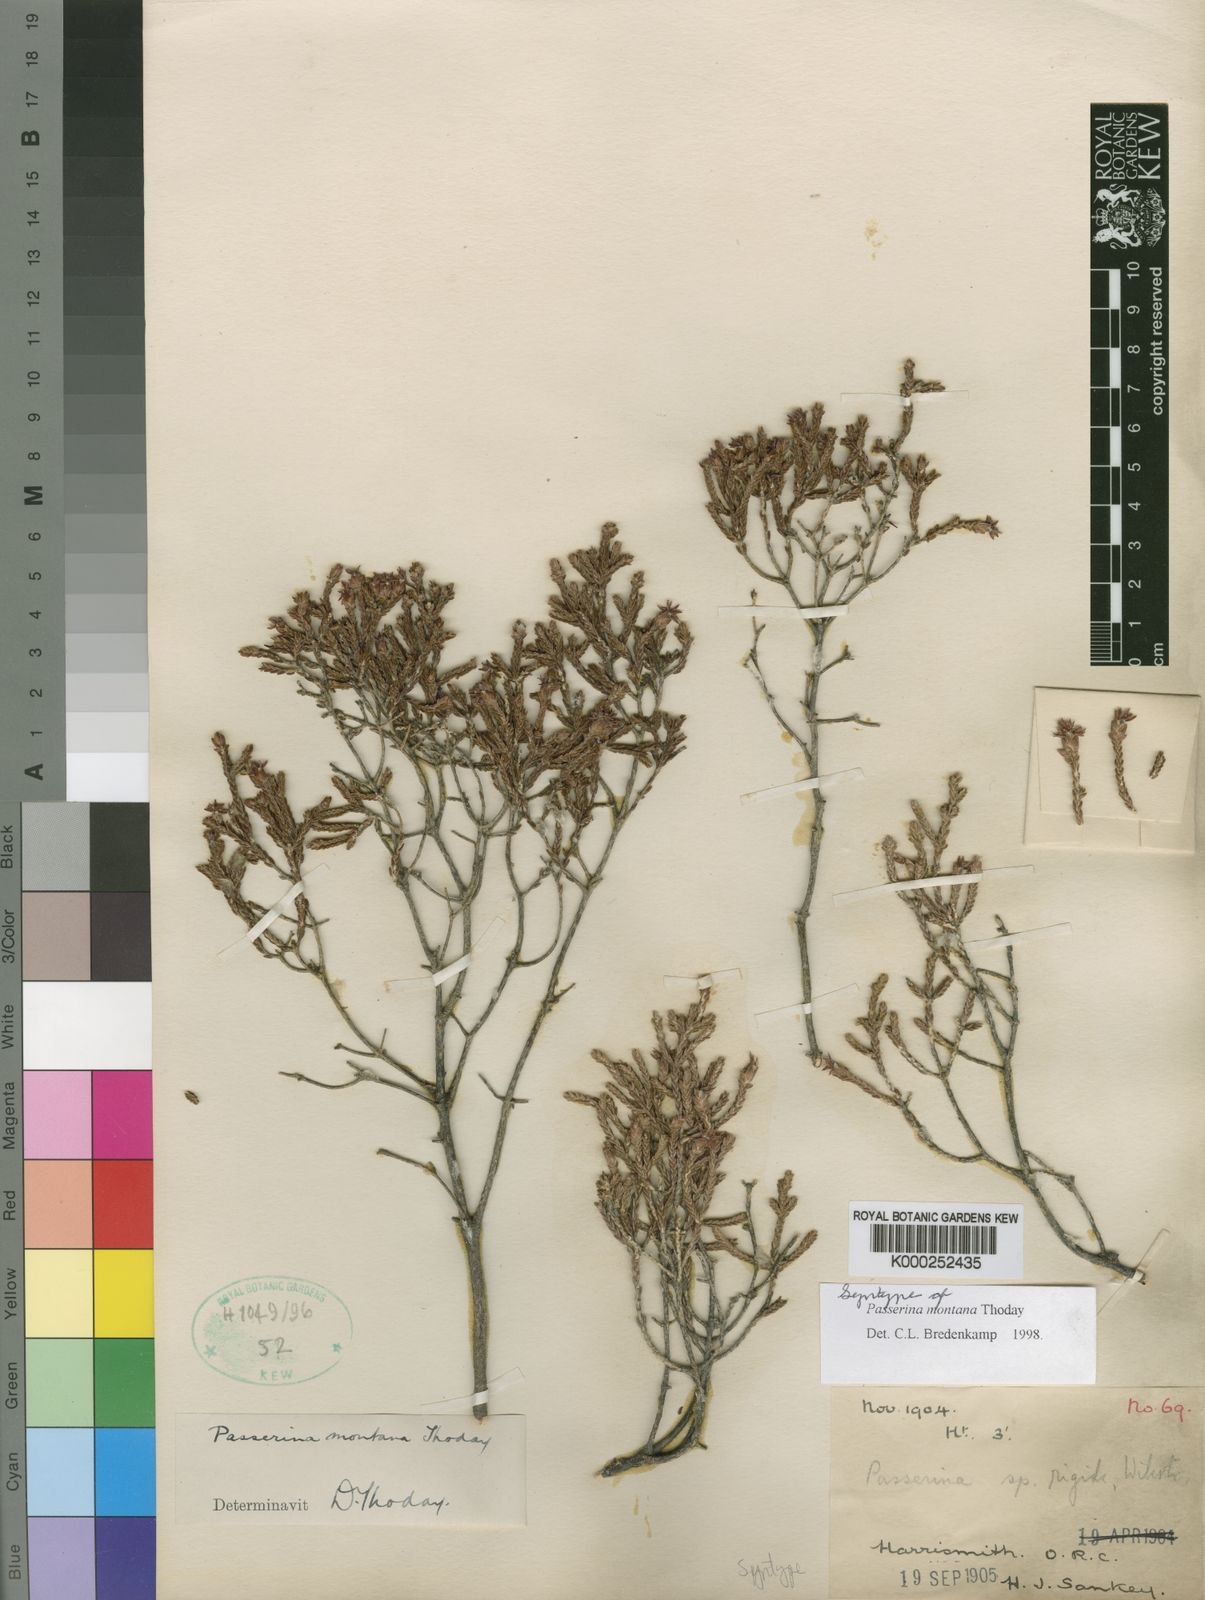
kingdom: Plantae
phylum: Tracheophyta
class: Magnoliopsida
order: Malvales
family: Thymelaeaceae
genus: Passerina
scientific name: Passerina montana
